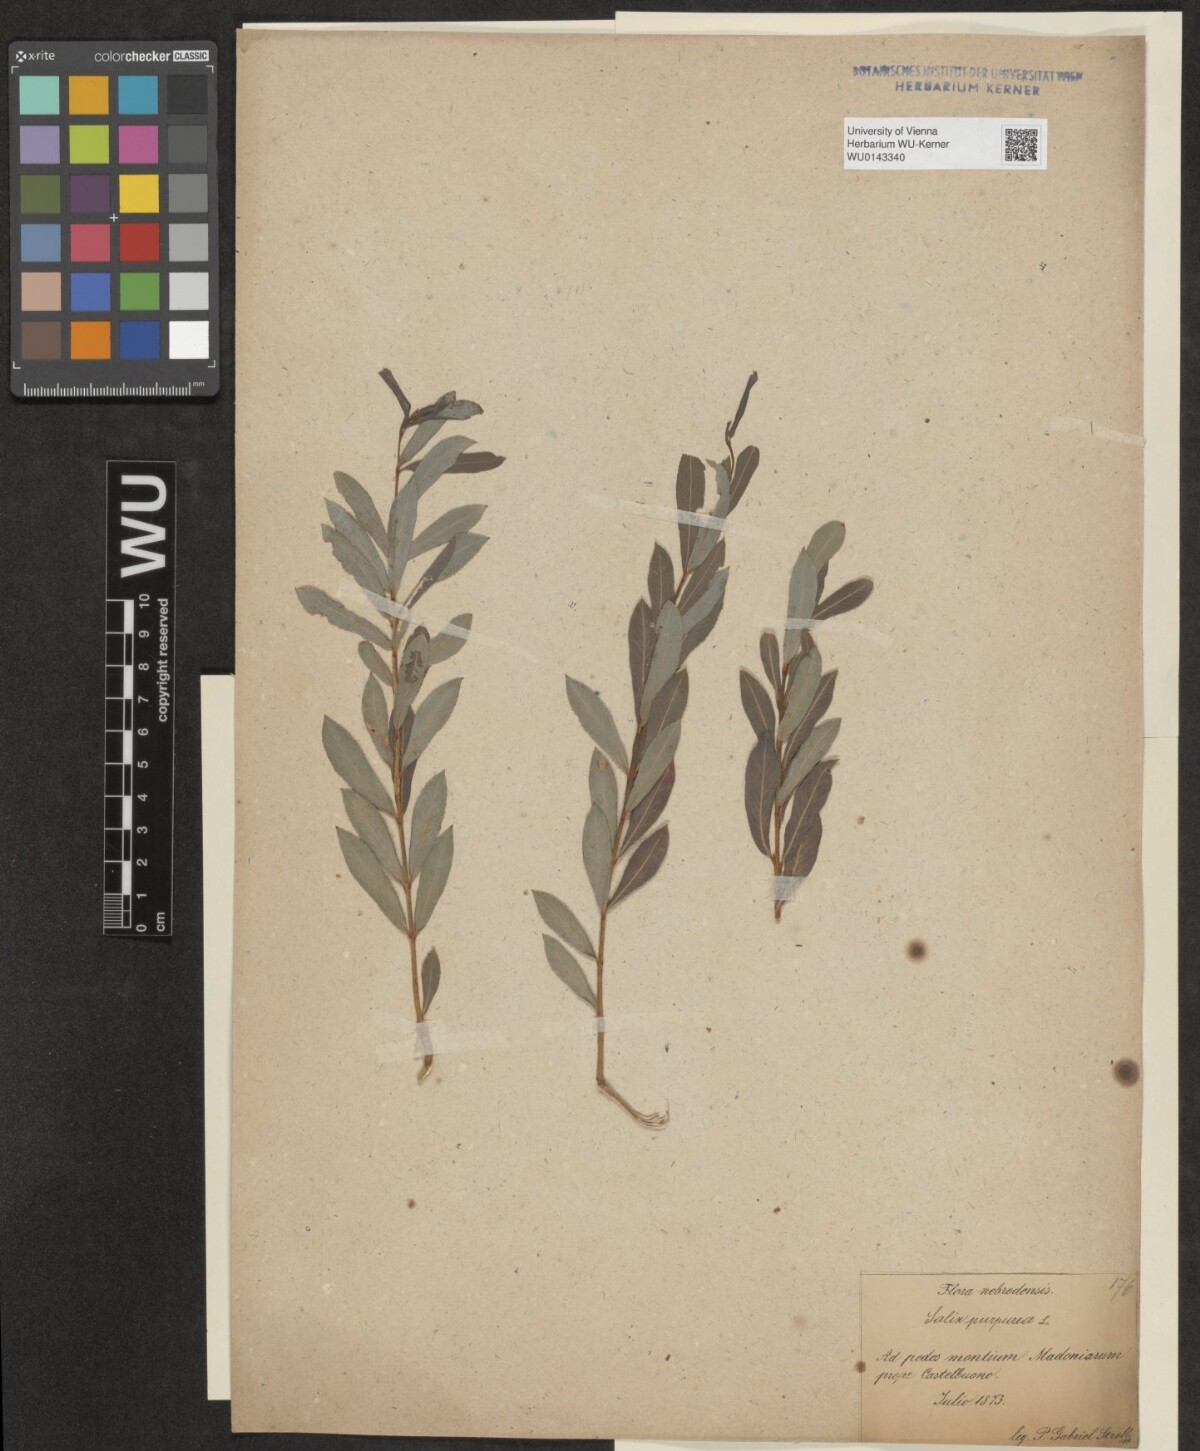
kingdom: Plantae
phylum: Tracheophyta
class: Magnoliopsida
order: Malpighiales
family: Salicaceae
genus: Salix
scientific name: Salix purpurea
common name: Purple willow
